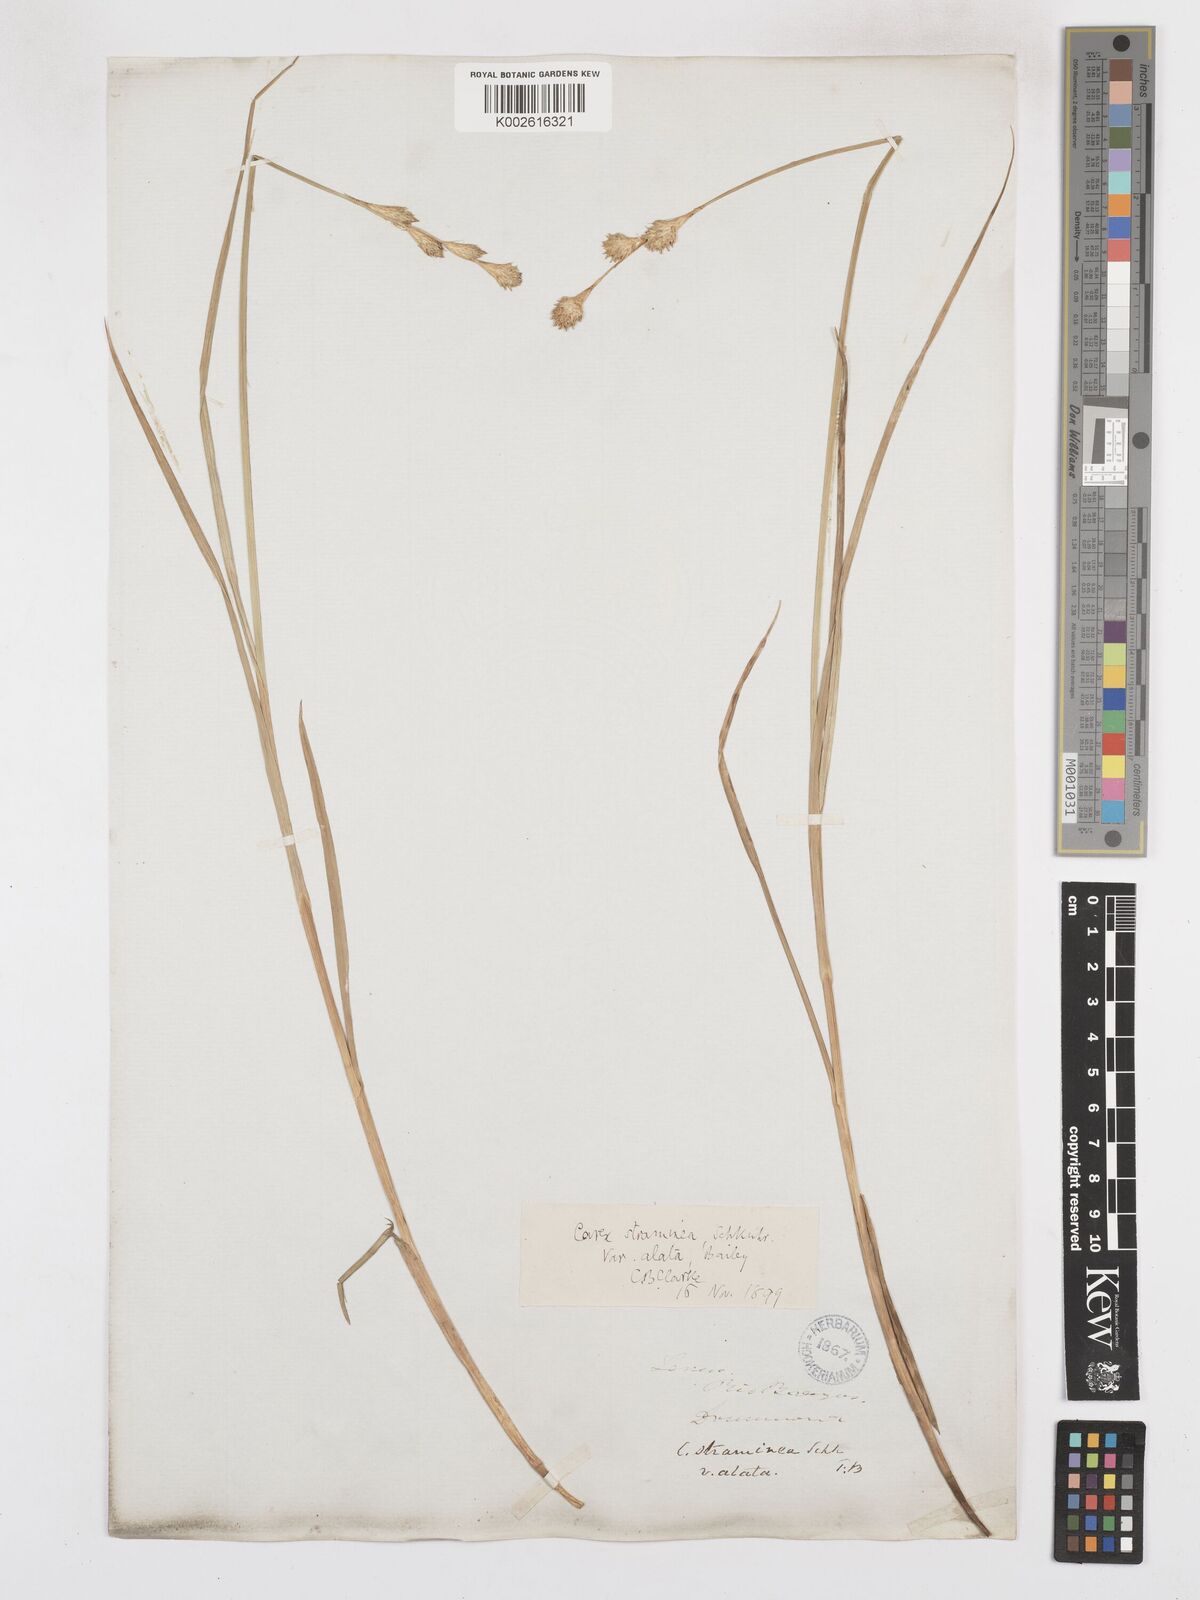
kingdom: Plantae
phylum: Tracheophyta
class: Liliopsida
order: Poales
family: Cyperaceae
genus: Carex
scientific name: Carex alata
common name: Broad-winged sedge
